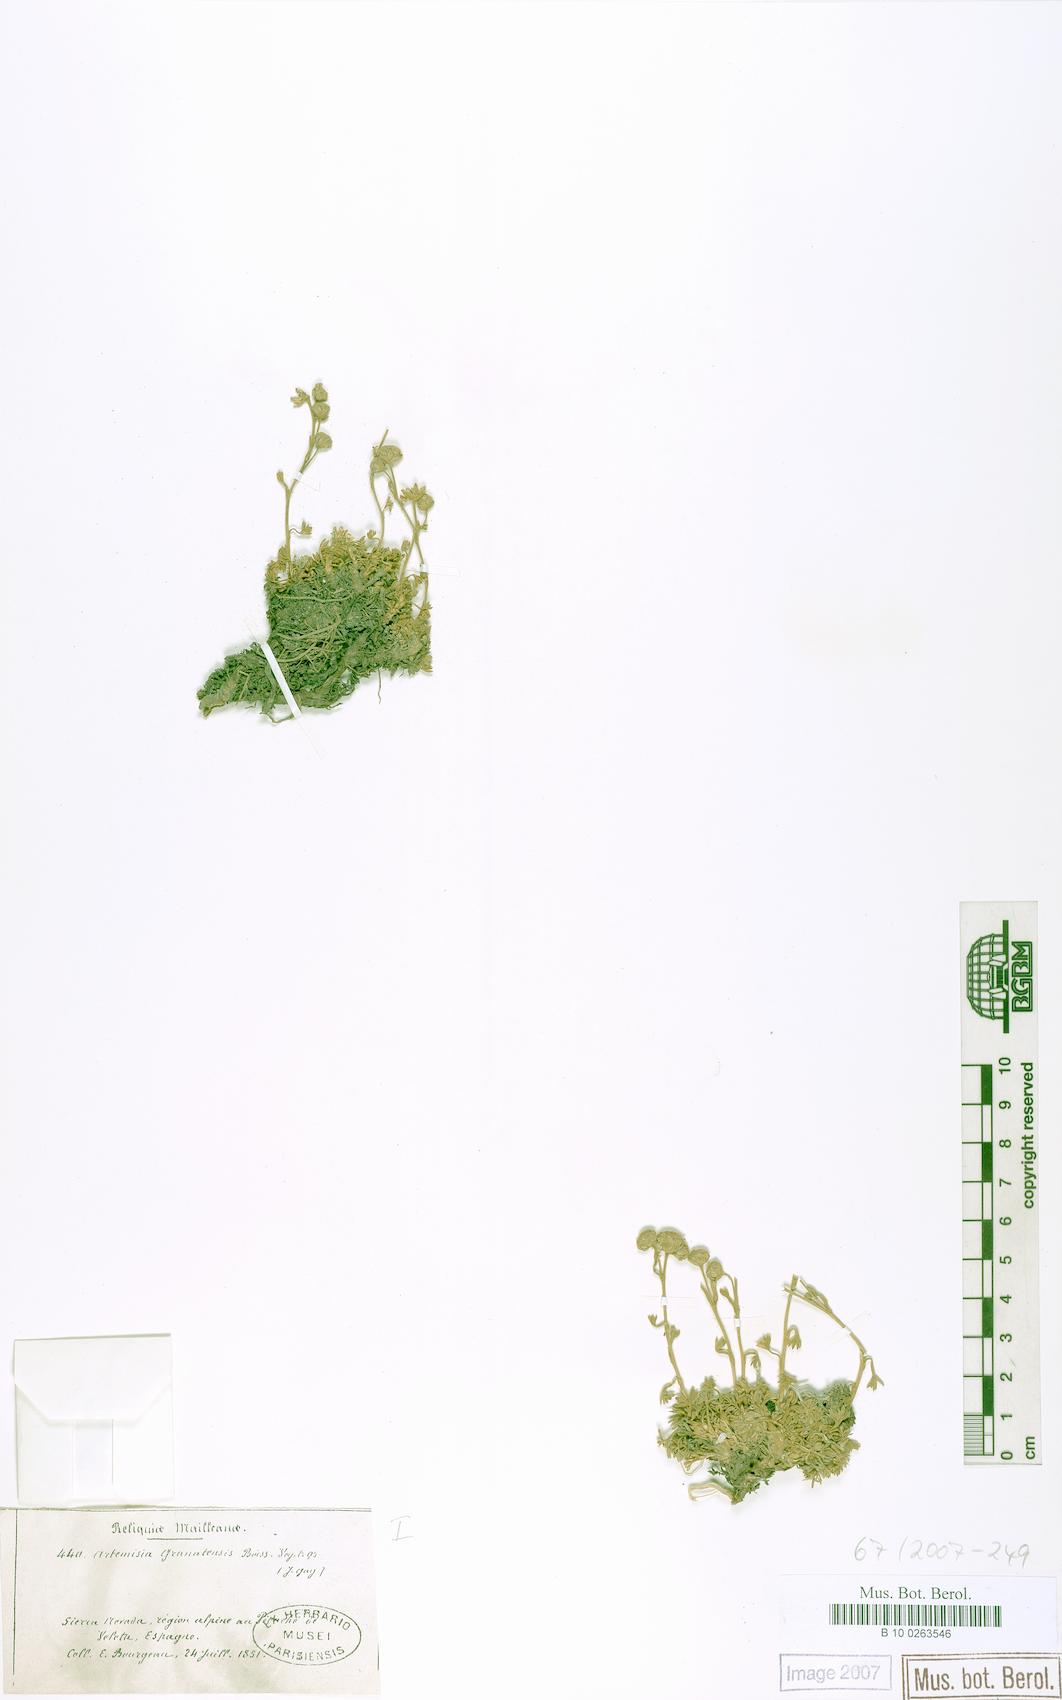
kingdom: Plantae
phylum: Tracheophyta
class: Magnoliopsida
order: Asterales
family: Asteraceae
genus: Artemisia
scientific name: Artemisia granatensis
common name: Royal chamomile
